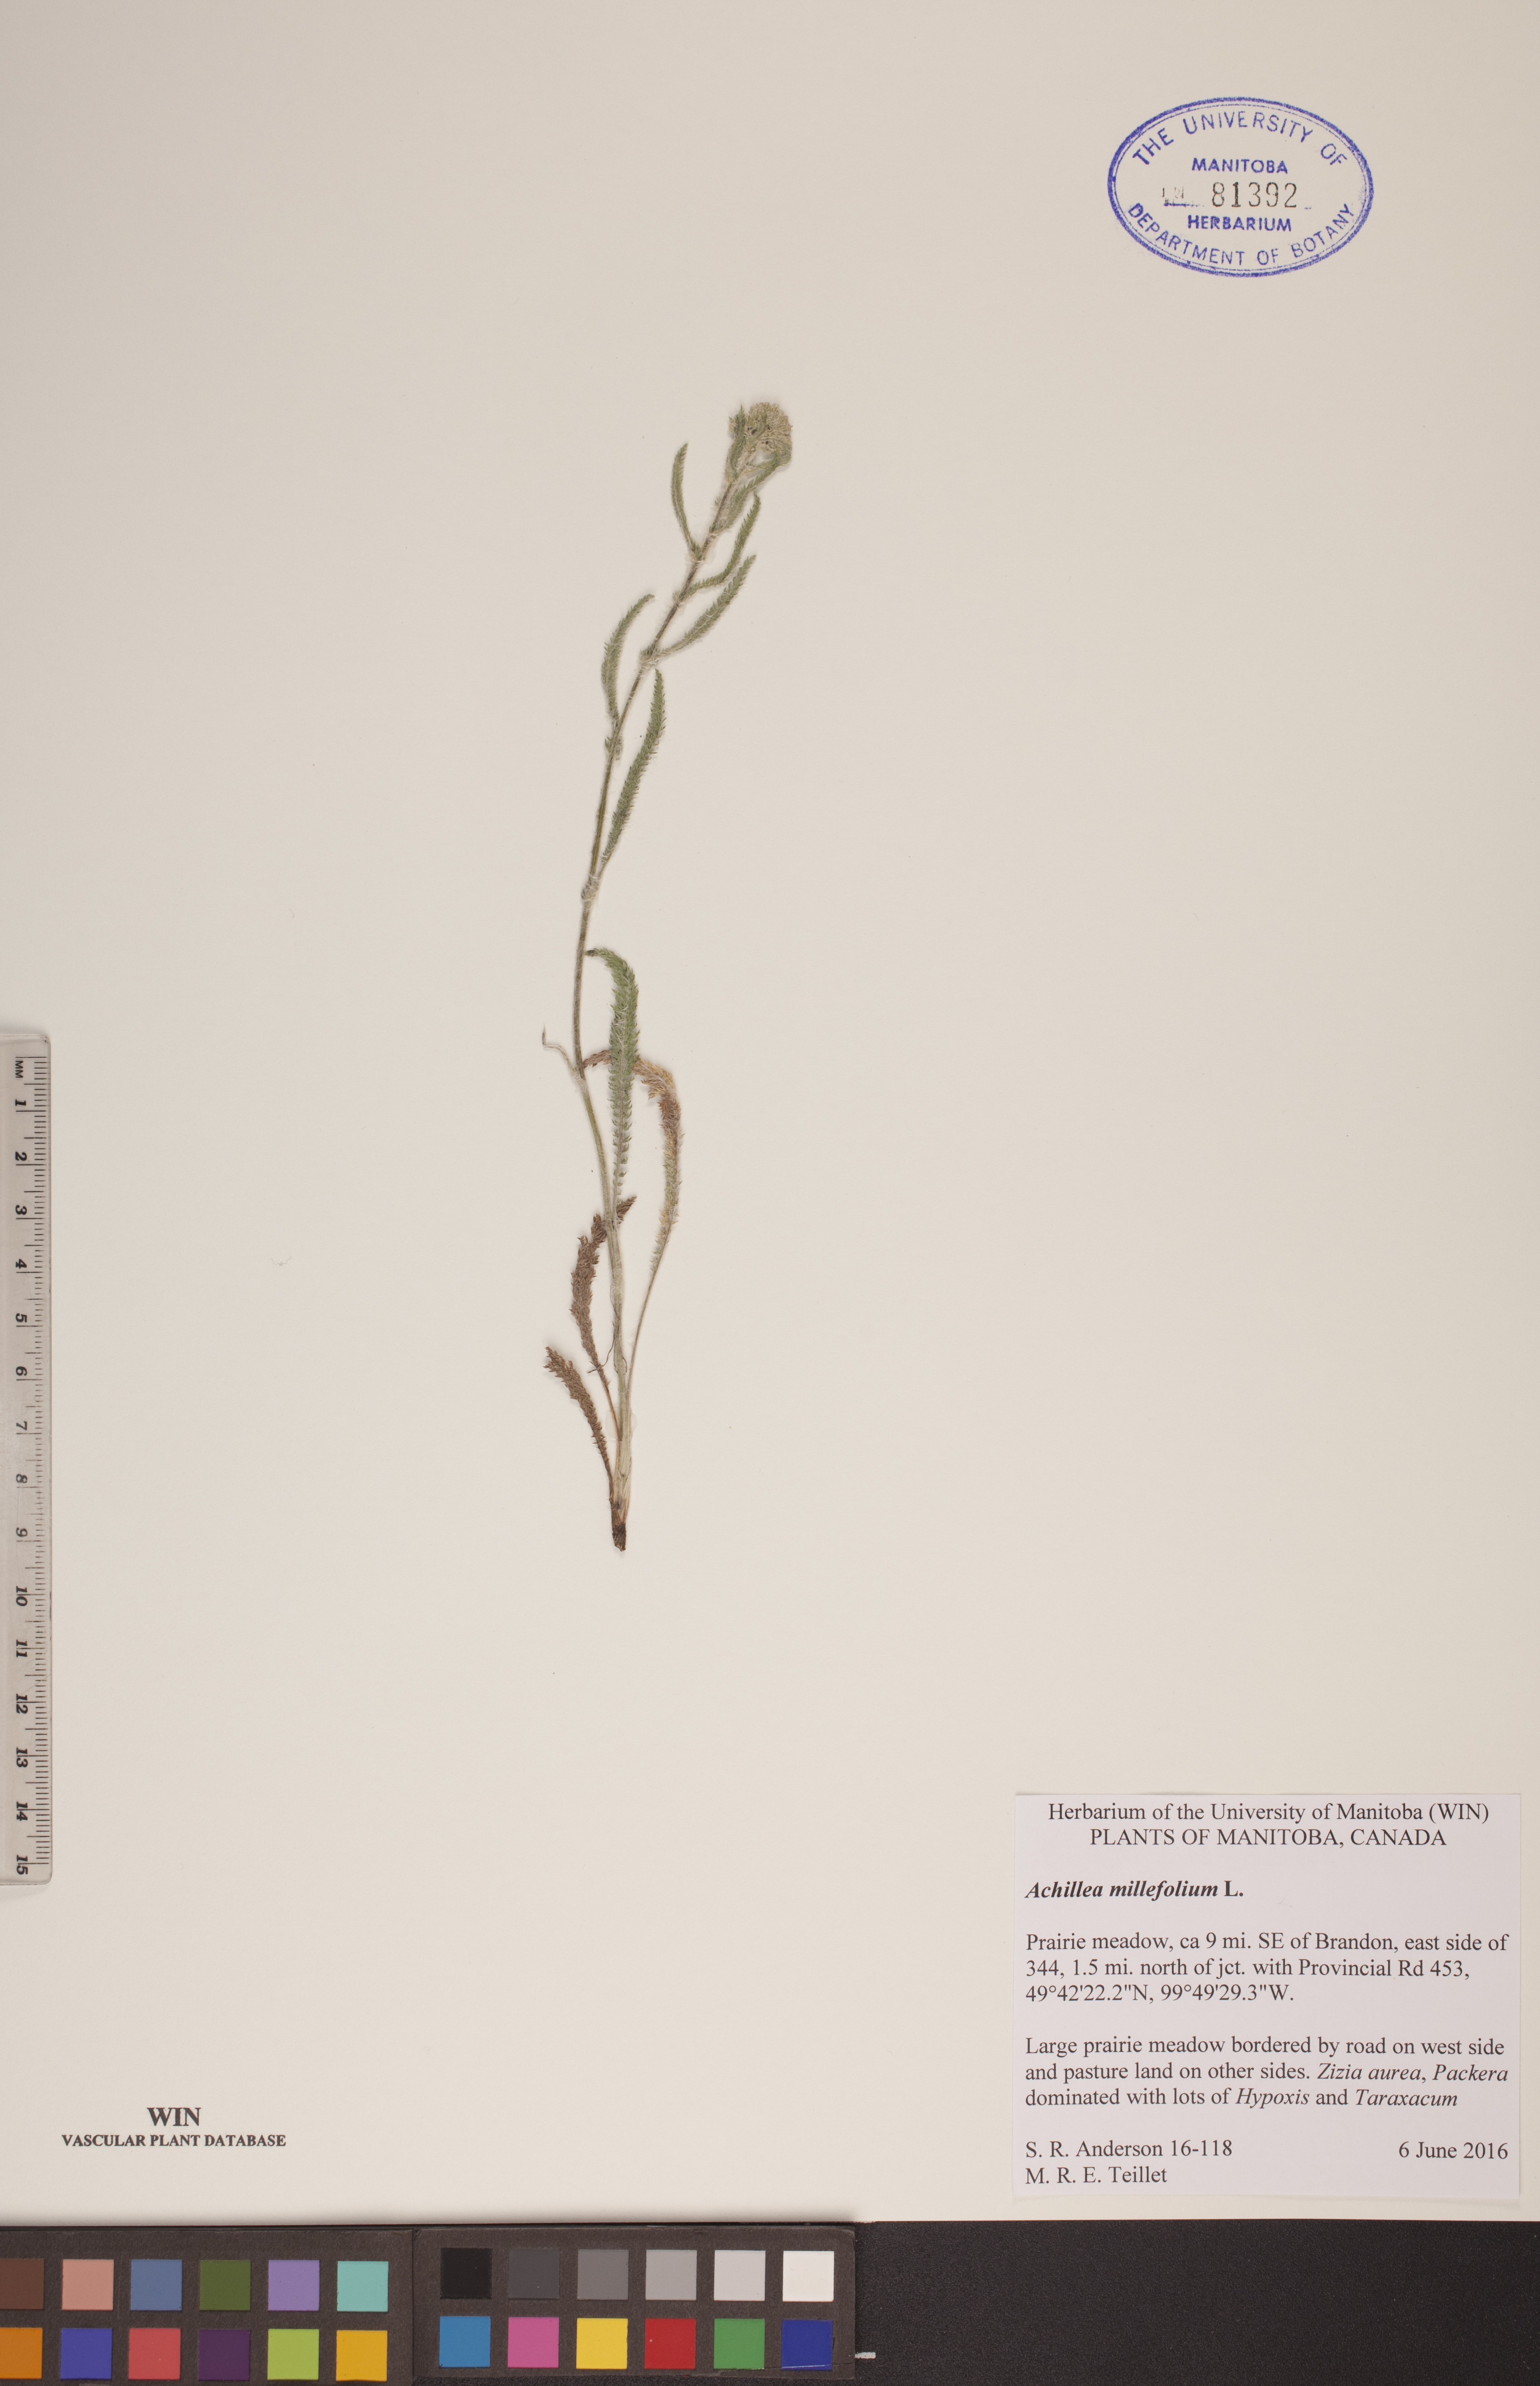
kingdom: Plantae
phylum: Tracheophyta
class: Magnoliopsida
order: Asterales
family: Asteraceae
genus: Achillea
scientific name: Achillea millefolium
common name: Yarrow
